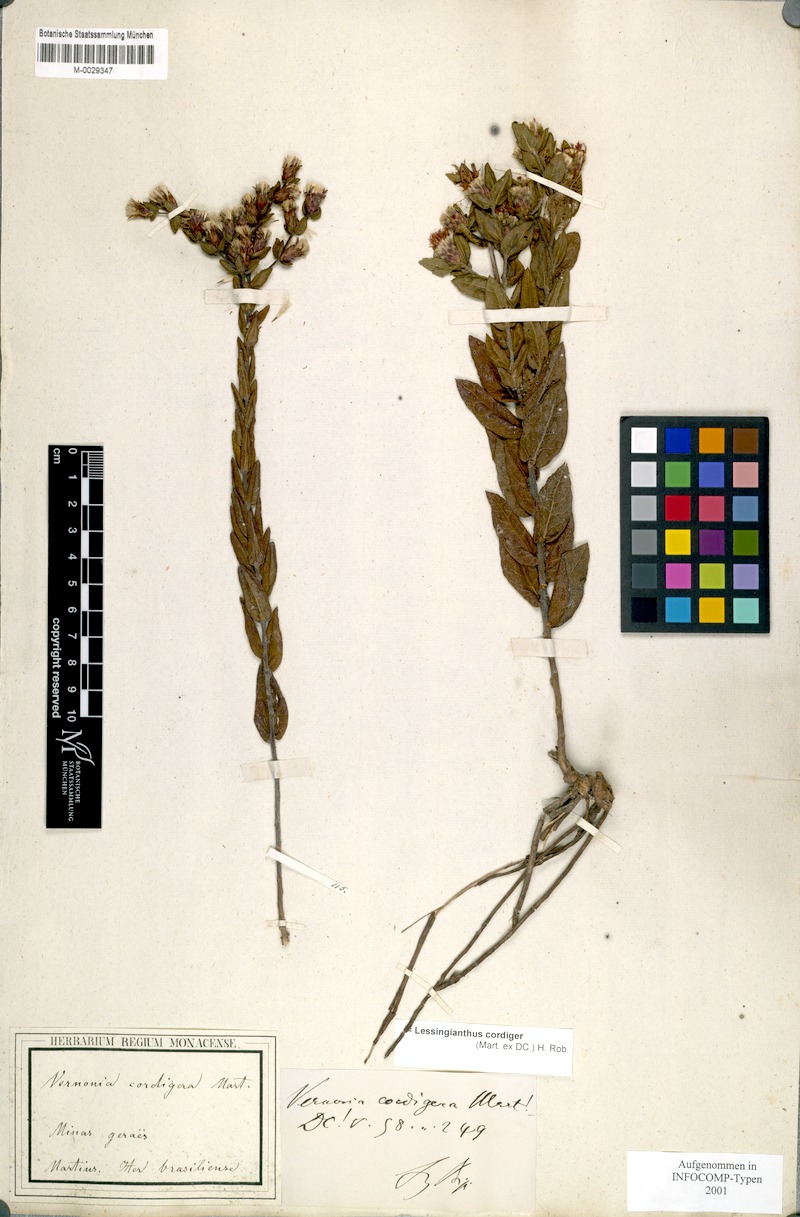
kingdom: Plantae
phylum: Tracheophyta
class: Magnoliopsida
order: Asterales
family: Asteraceae
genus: Lessingianthus
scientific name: Lessingianthus cordiger
